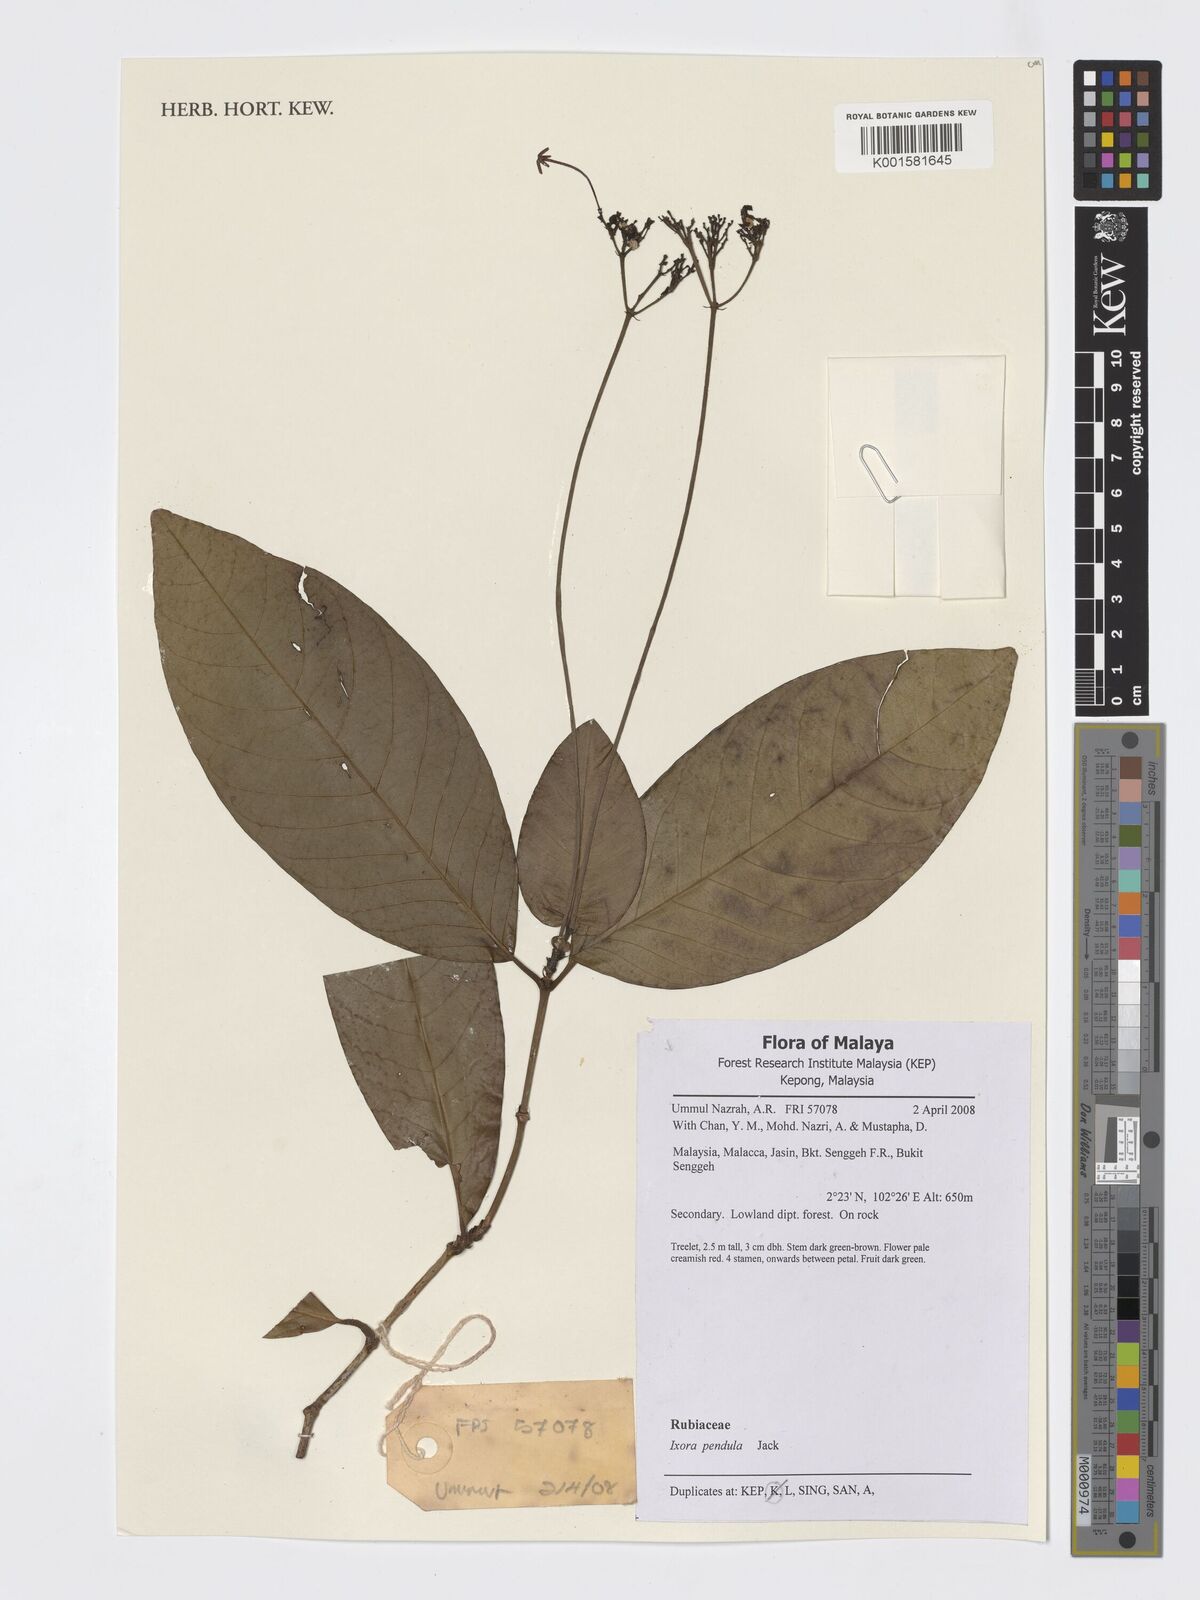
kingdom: Plantae
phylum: Tracheophyta
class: Magnoliopsida
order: Gentianales
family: Rubiaceae
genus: Ixora
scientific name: Ixora pendula
